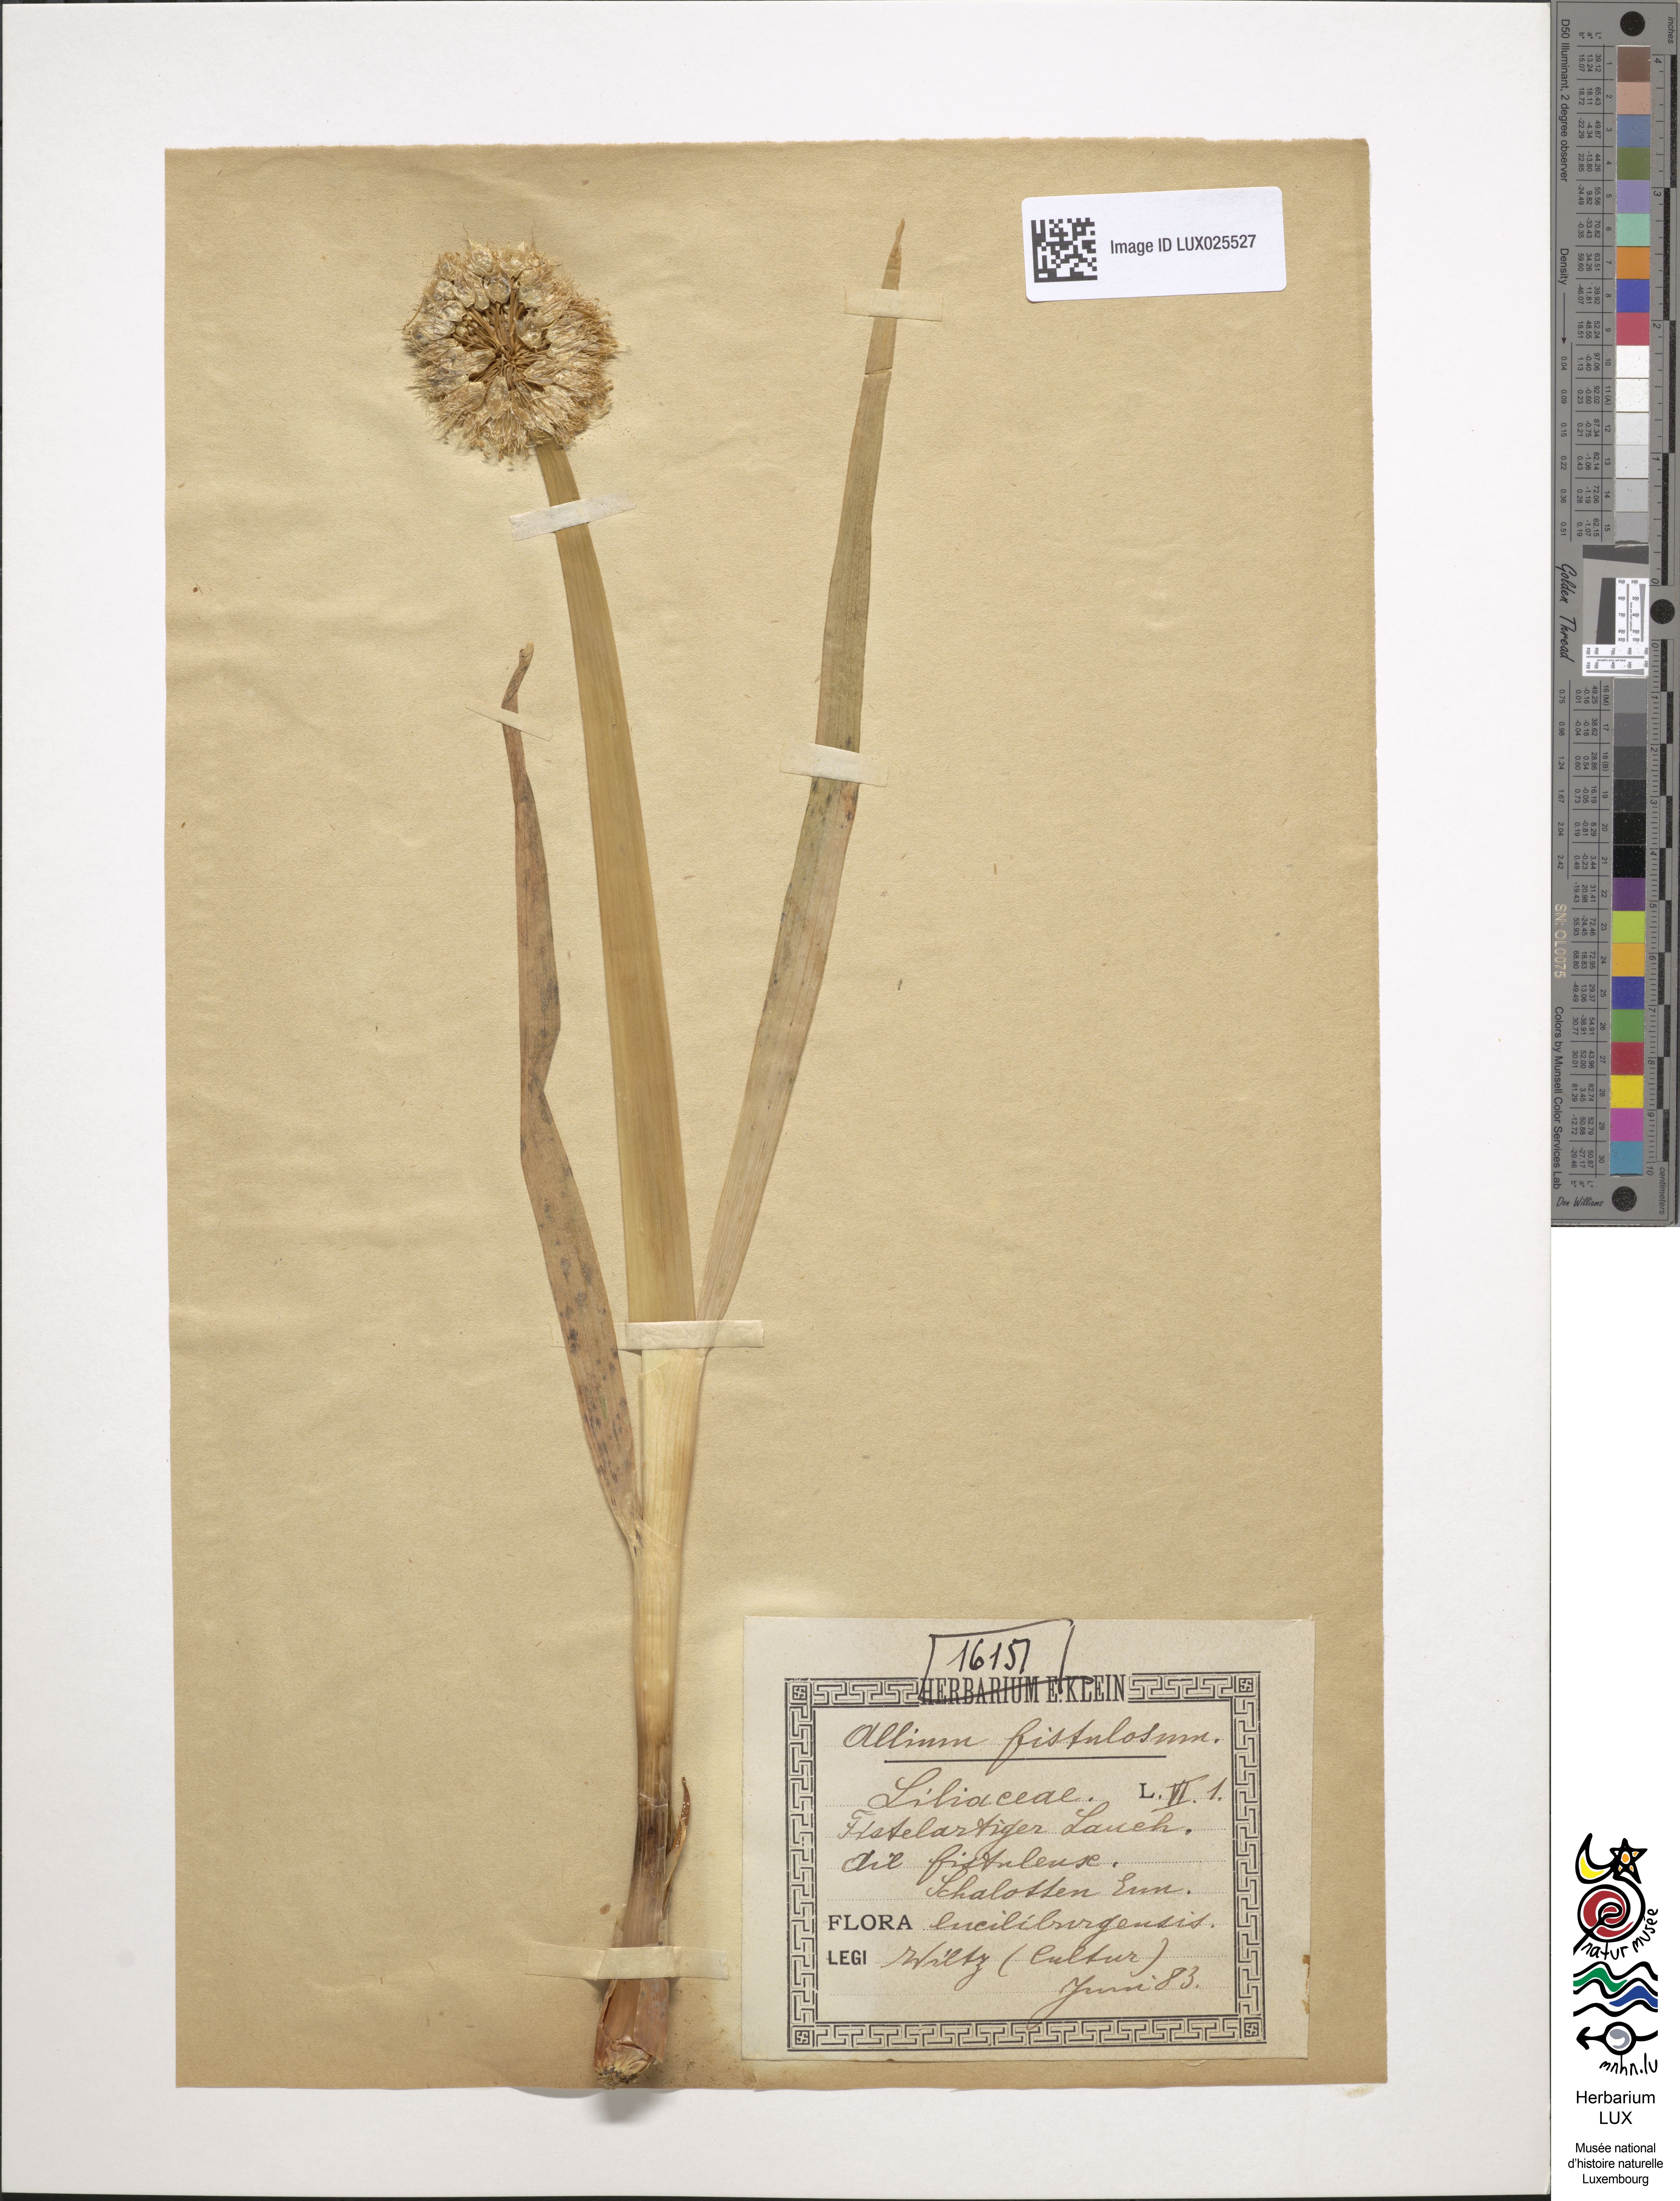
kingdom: Plantae
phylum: Tracheophyta
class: Liliopsida
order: Asparagales
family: Amaryllidaceae
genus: Allium
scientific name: Allium fistulosum
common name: Welsh onion
